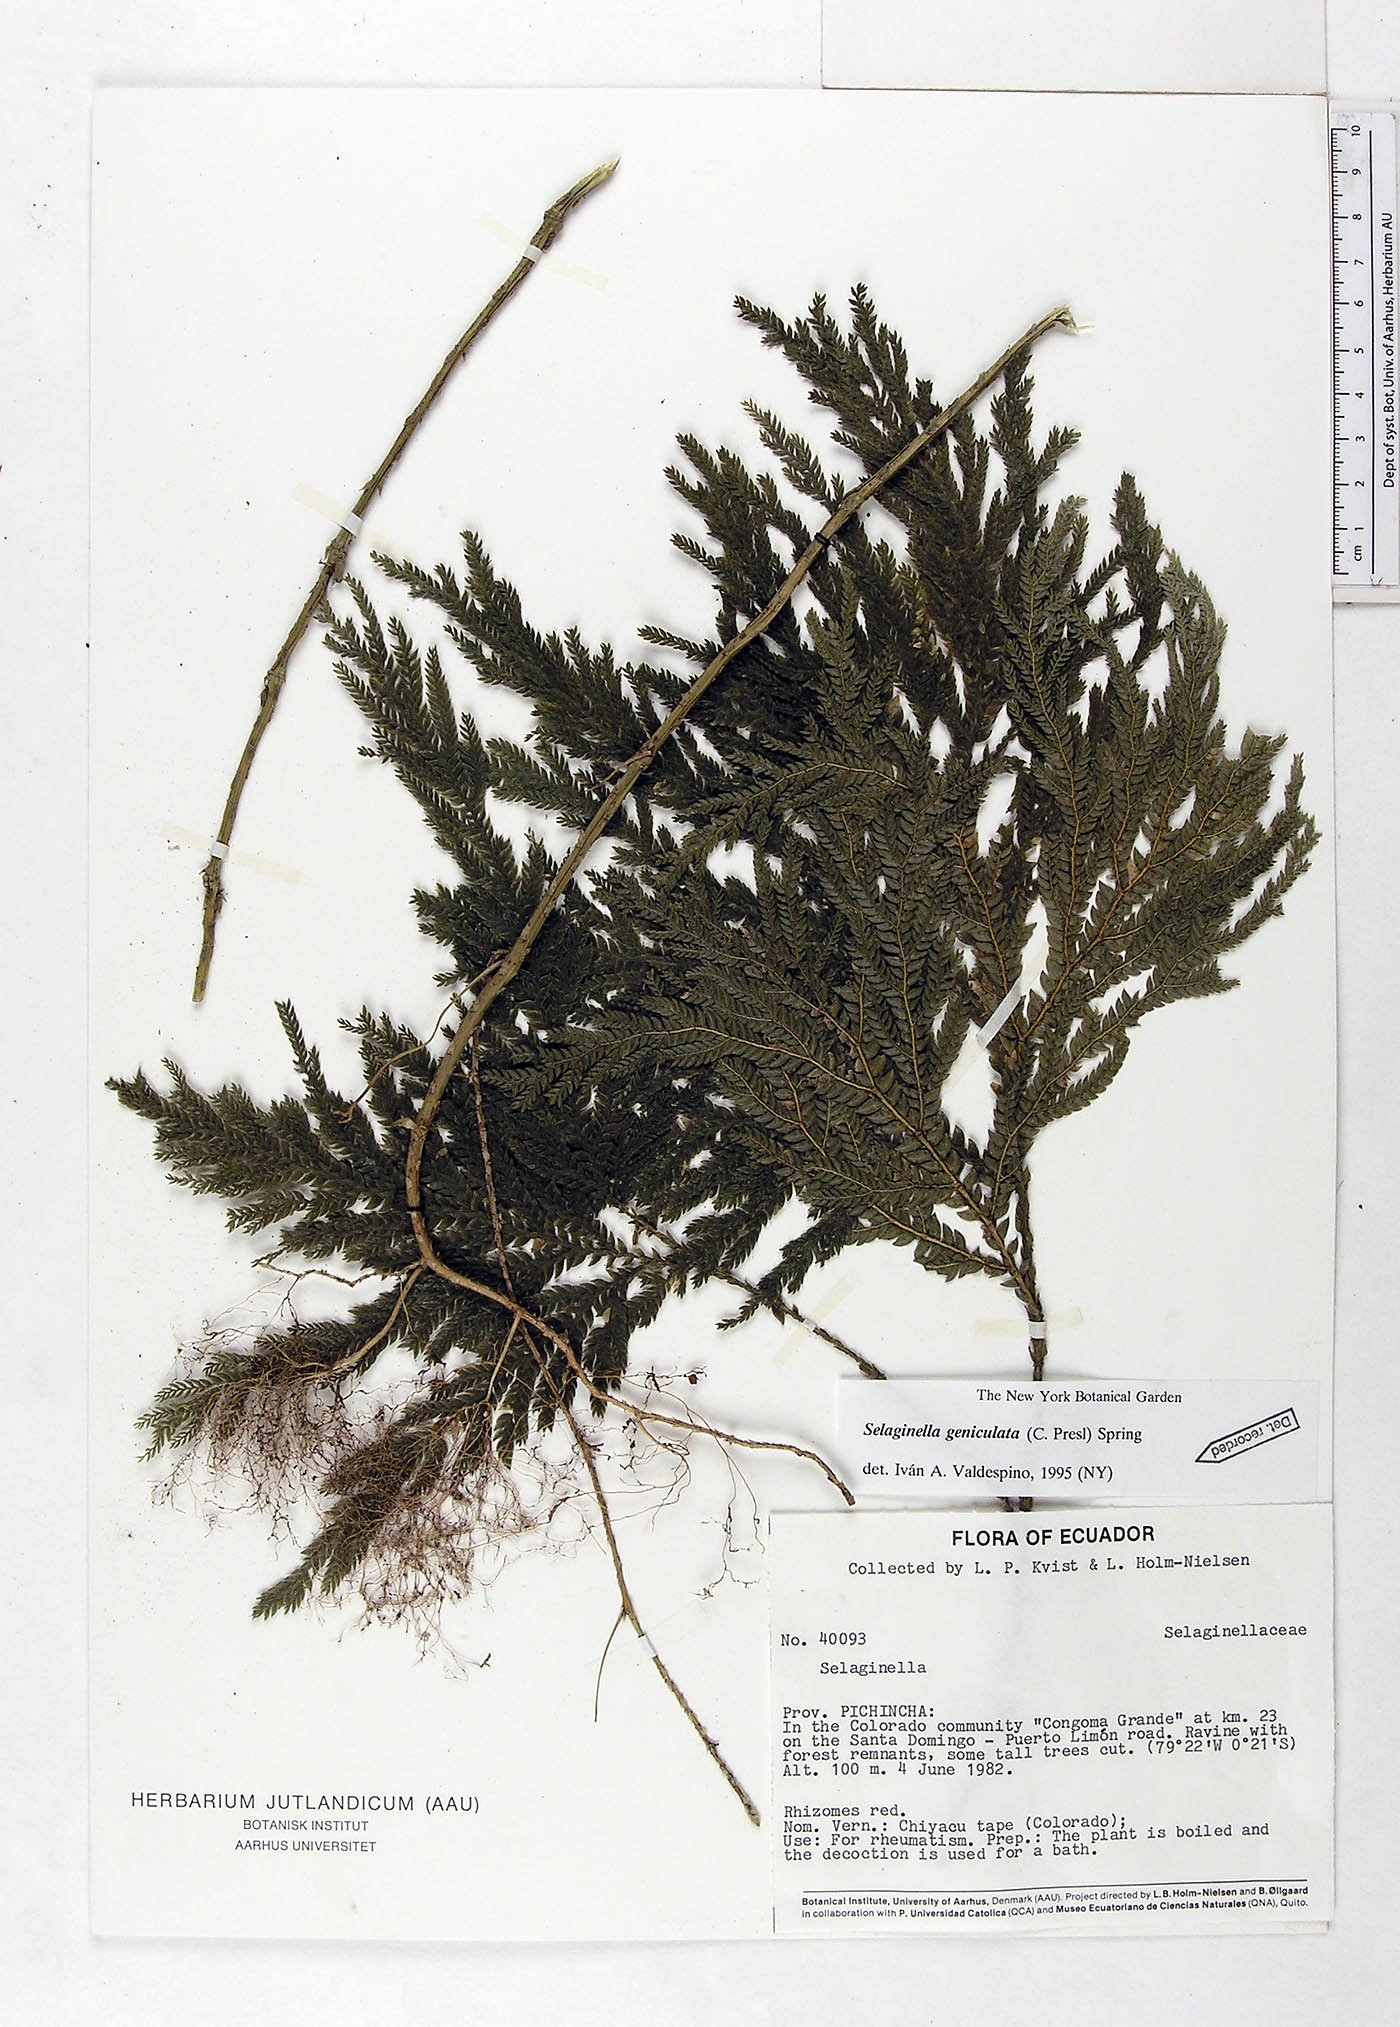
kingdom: Plantae
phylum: Tracheophyta
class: Lycopodiopsida
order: Selaginellales
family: Selaginellaceae
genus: Selaginella
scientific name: Selaginella geniculata
